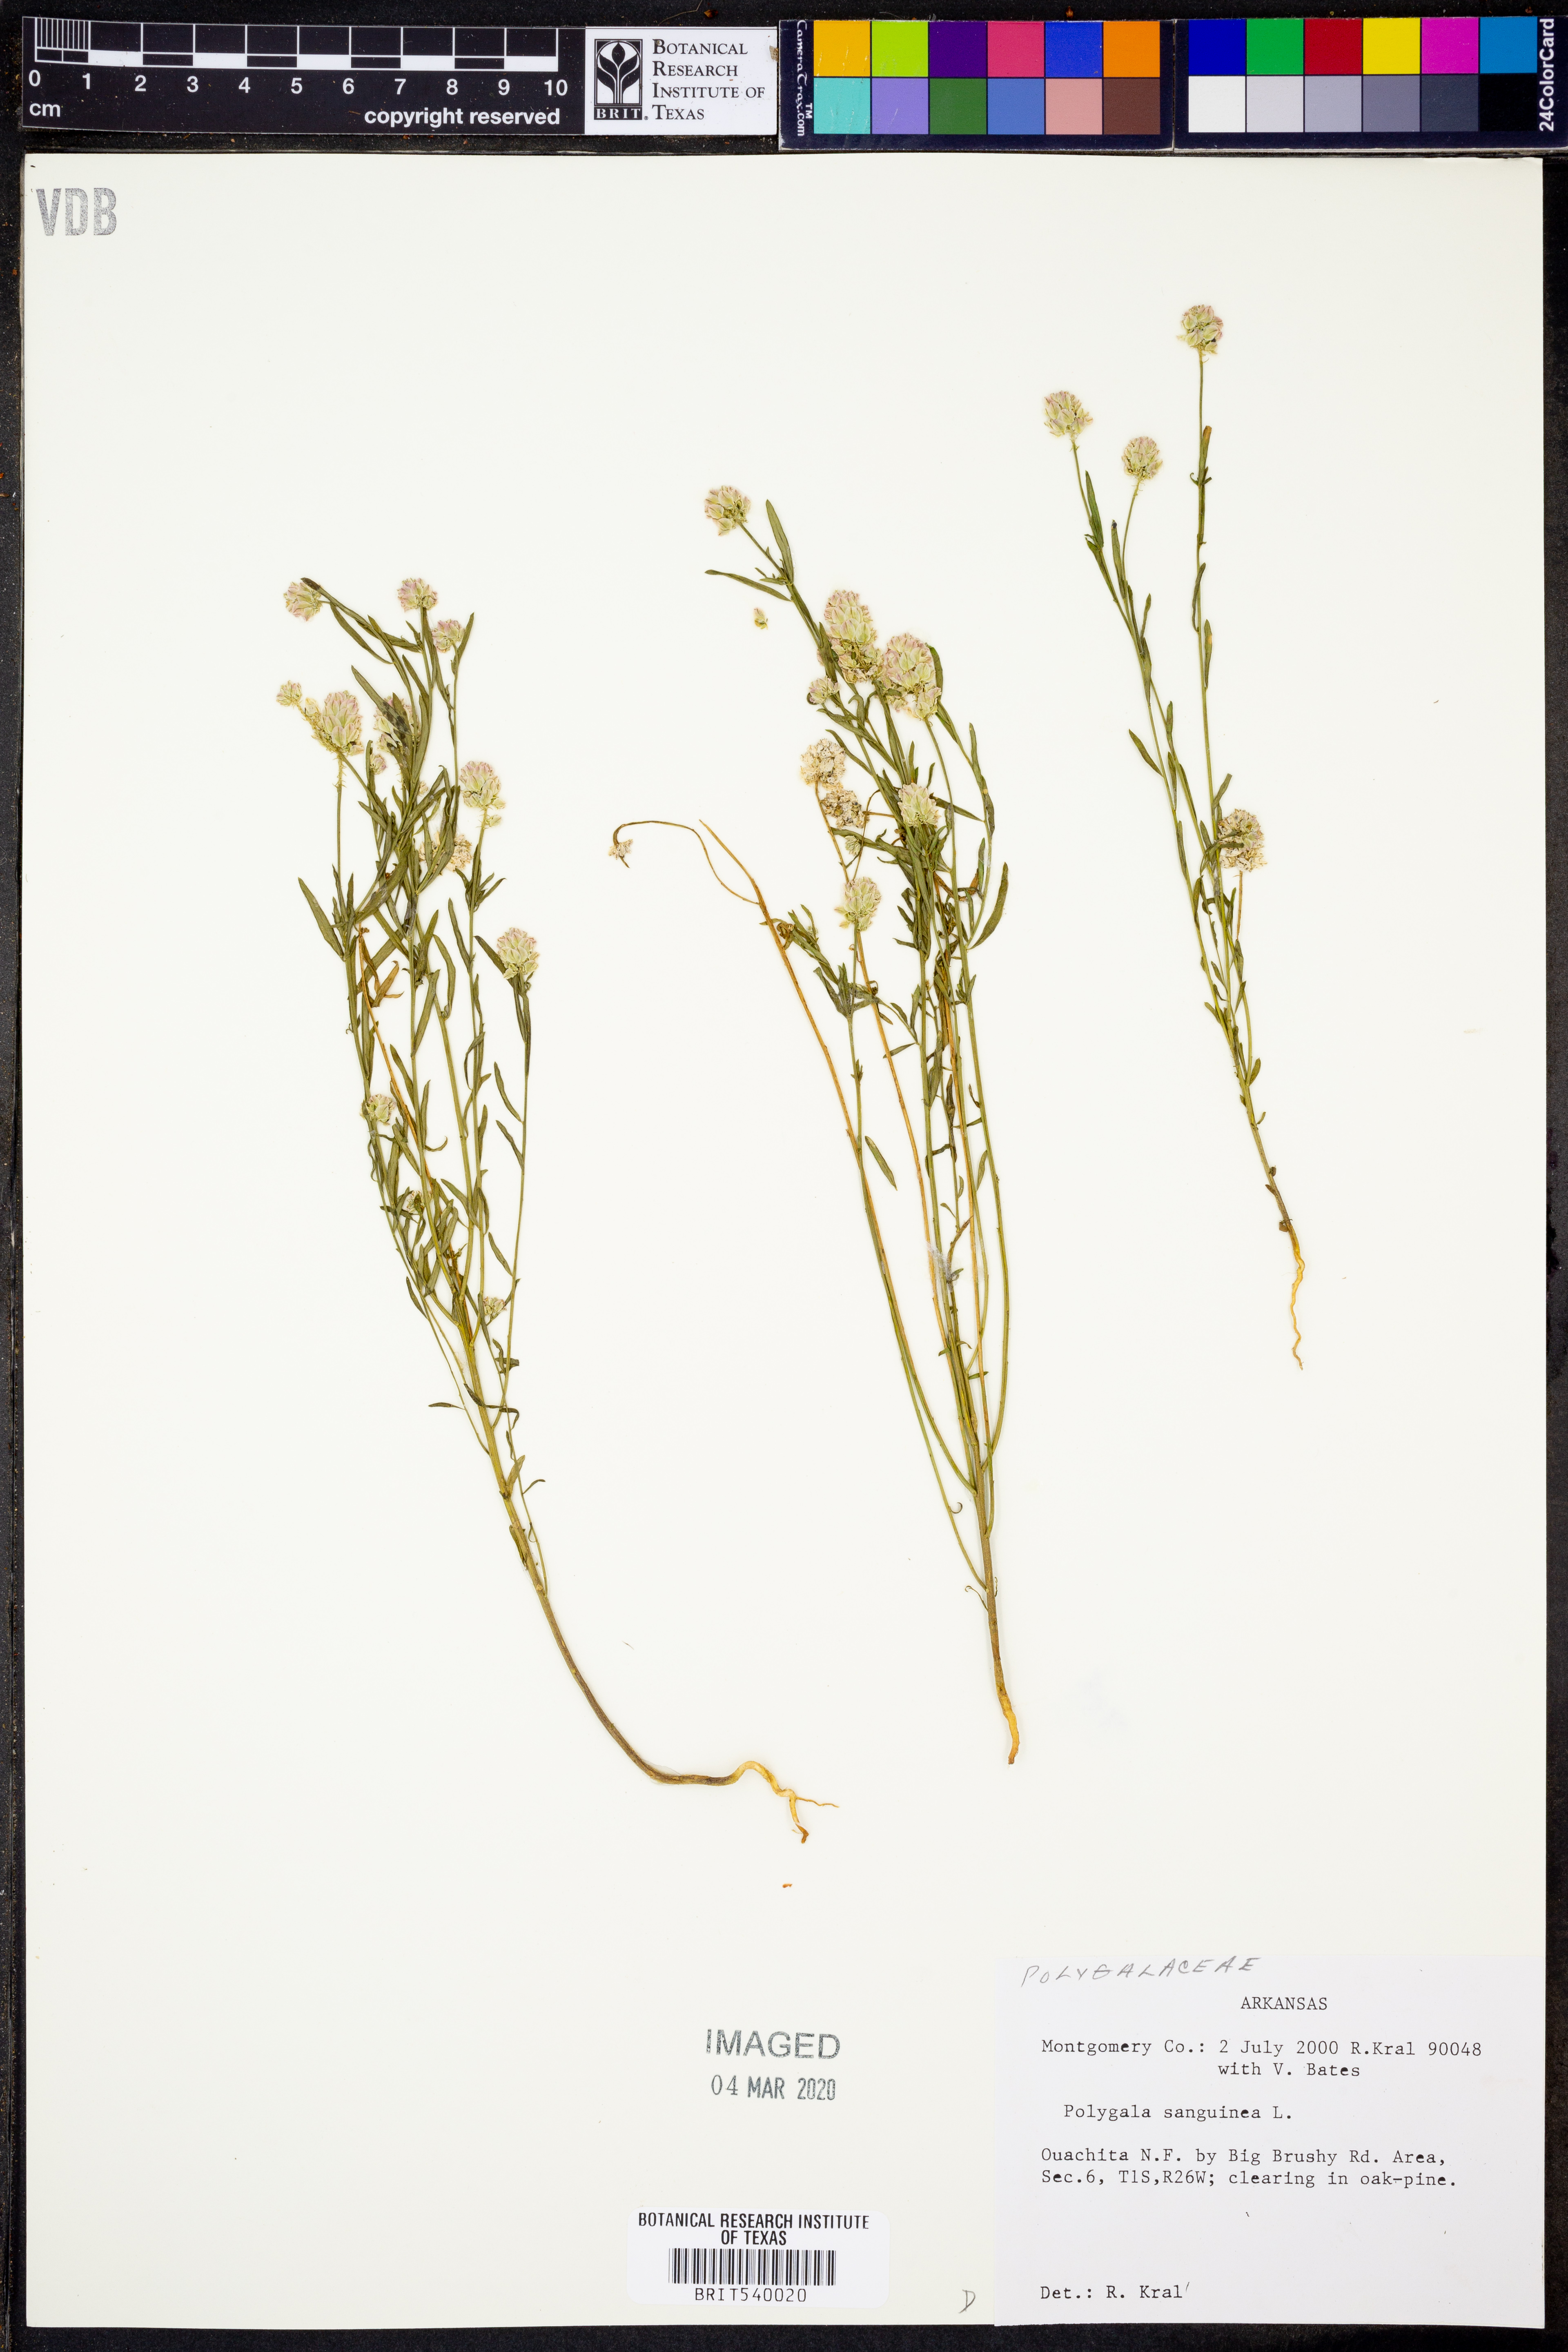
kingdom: Plantae
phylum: Tracheophyta
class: Magnoliopsida
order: Fabales
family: Polygalaceae
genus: Polygala
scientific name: Polygala sanguinea
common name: Blood milkwort
